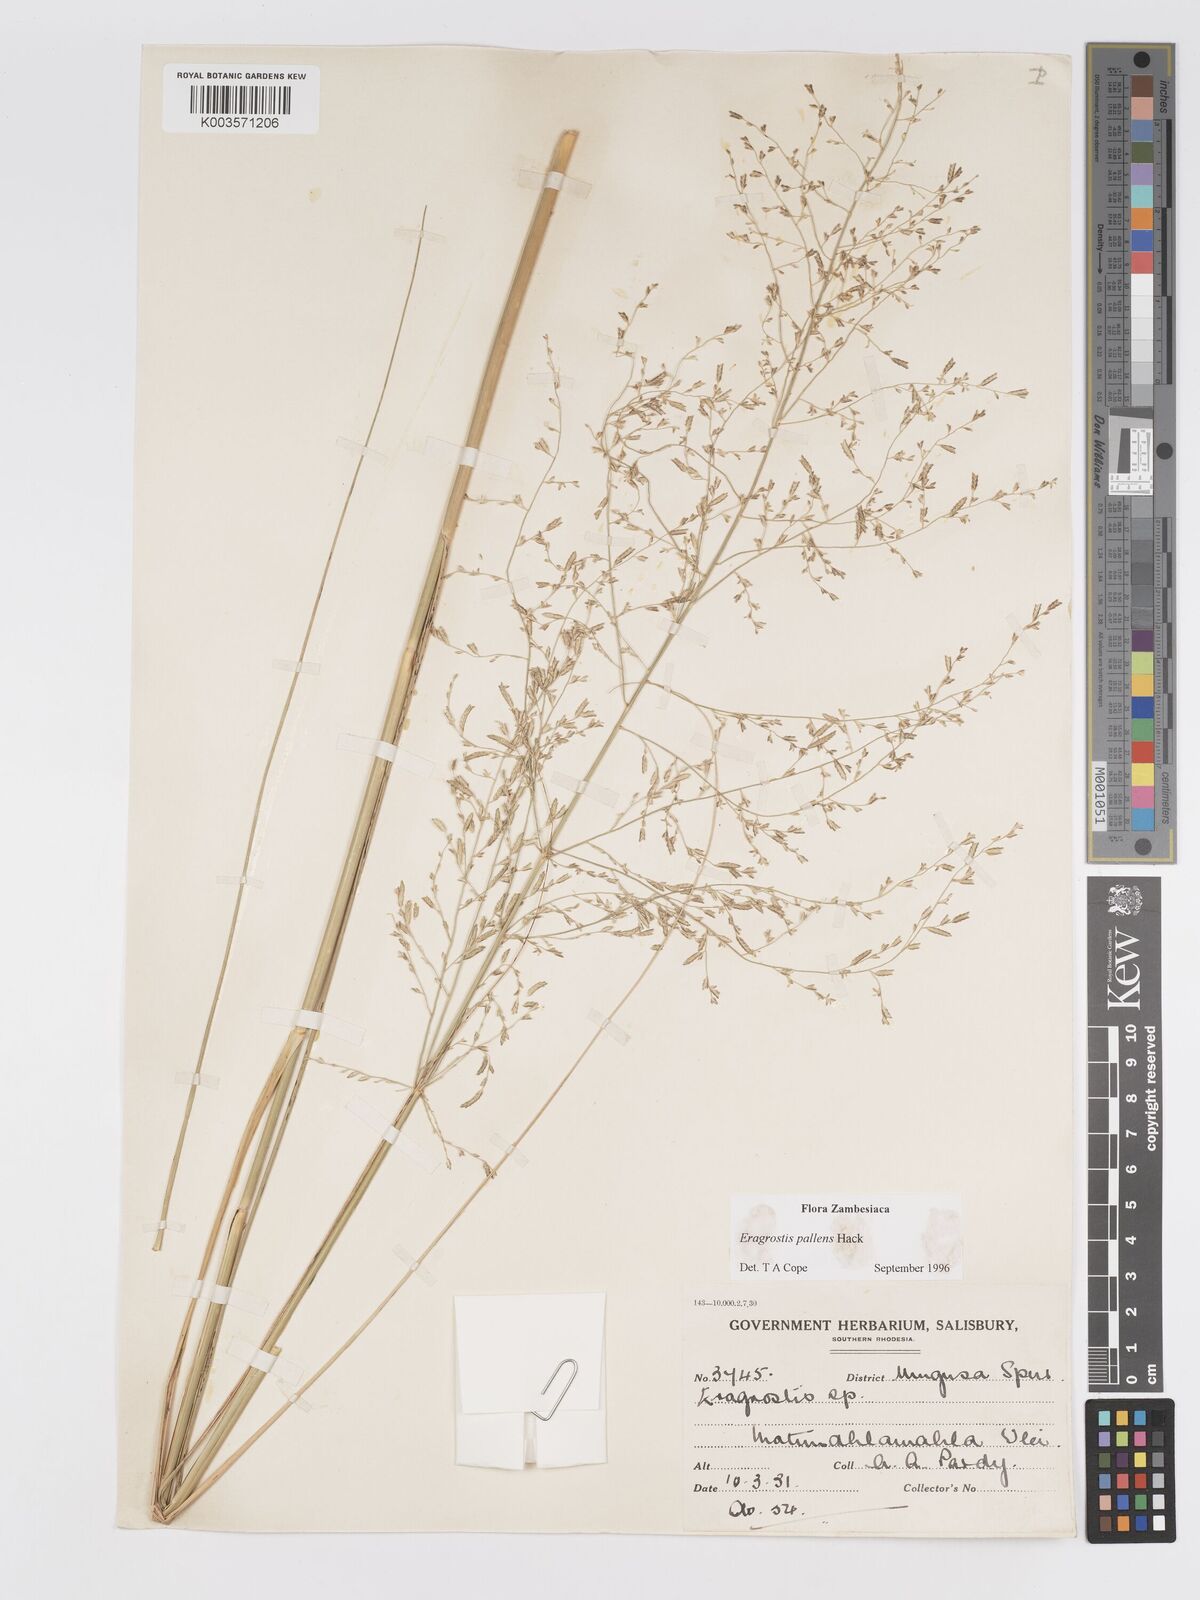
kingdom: Plantae
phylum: Tracheophyta
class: Liliopsida
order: Poales
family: Poaceae
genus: Eragrostis
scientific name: Eragrostis pallens
